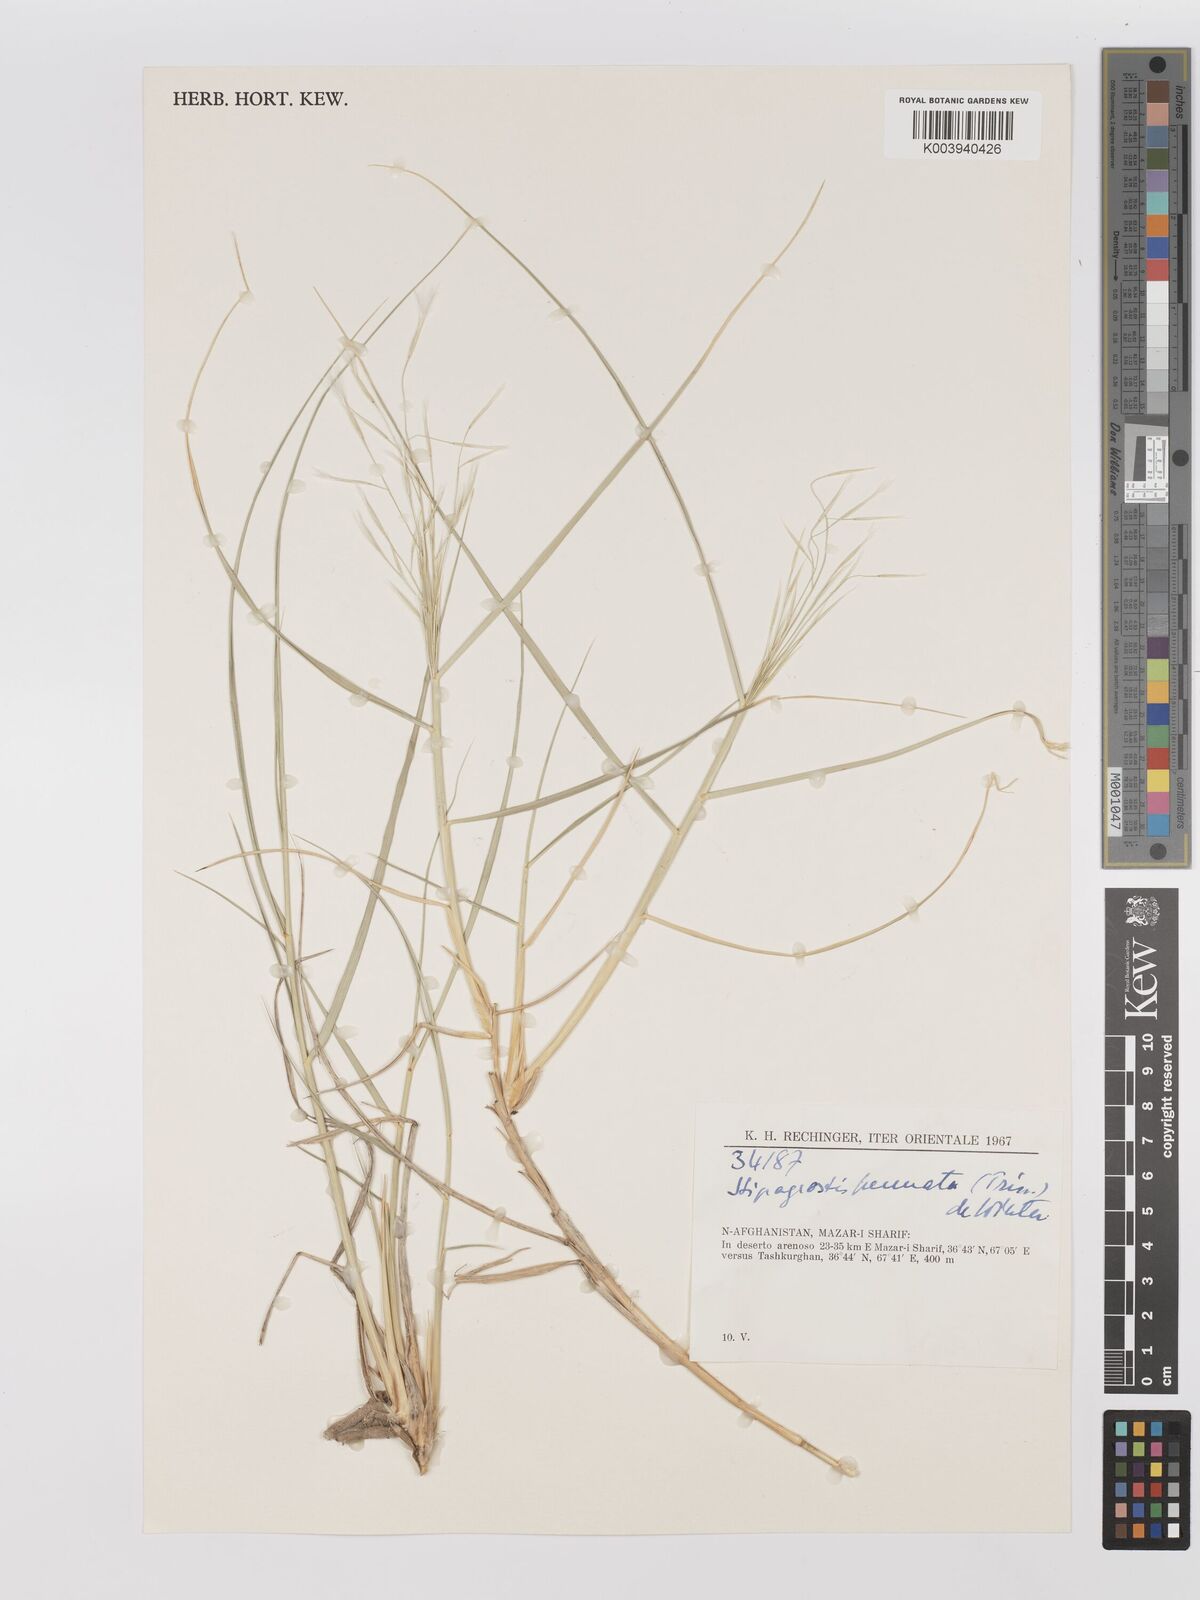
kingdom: Plantae
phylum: Tracheophyta
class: Liliopsida
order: Poales
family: Poaceae
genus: Stipagrostis
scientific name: Stipagrostis pennata
